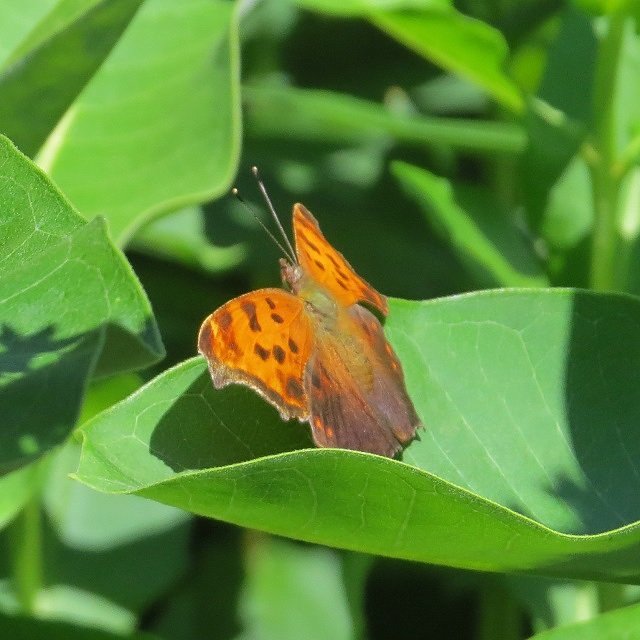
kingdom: Animalia
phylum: Arthropoda
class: Insecta
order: Lepidoptera
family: Nymphalidae
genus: Polygonia
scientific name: Polygonia comma
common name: Eastern Comma
